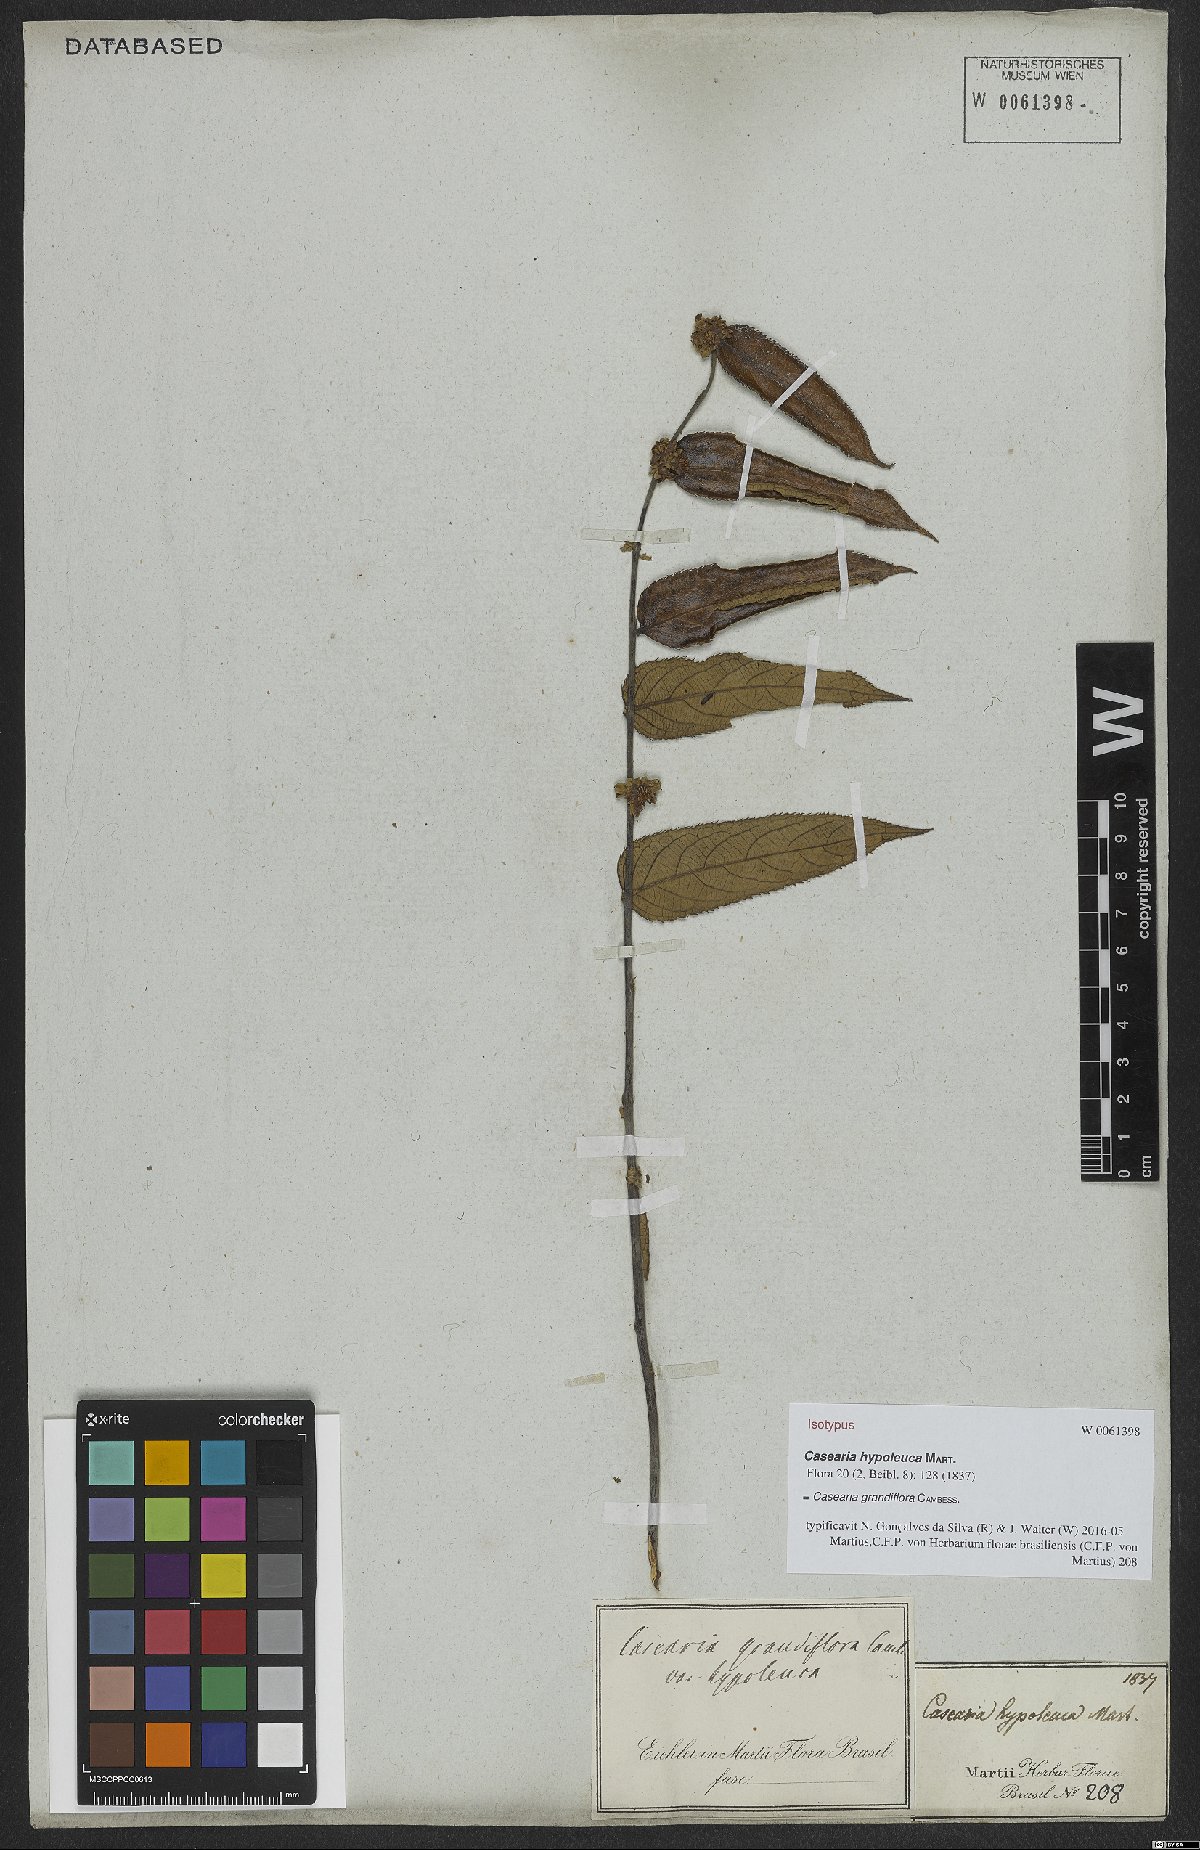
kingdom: Plantae
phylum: Tracheophyta
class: Magnoliopsida
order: Malpighiales
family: Salicaceae
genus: Casearia
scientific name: Casearia grandiflora
